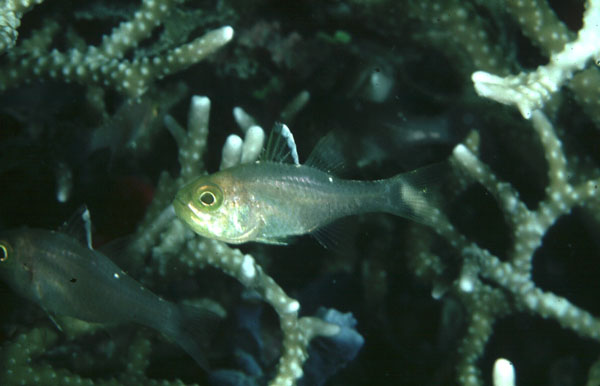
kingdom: Animalia
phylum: Chordata
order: Perciformes
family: Apogonidae
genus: Ostorhinchus
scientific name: Ostorhinchus hoevenii
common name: Flag-fin cardinal
